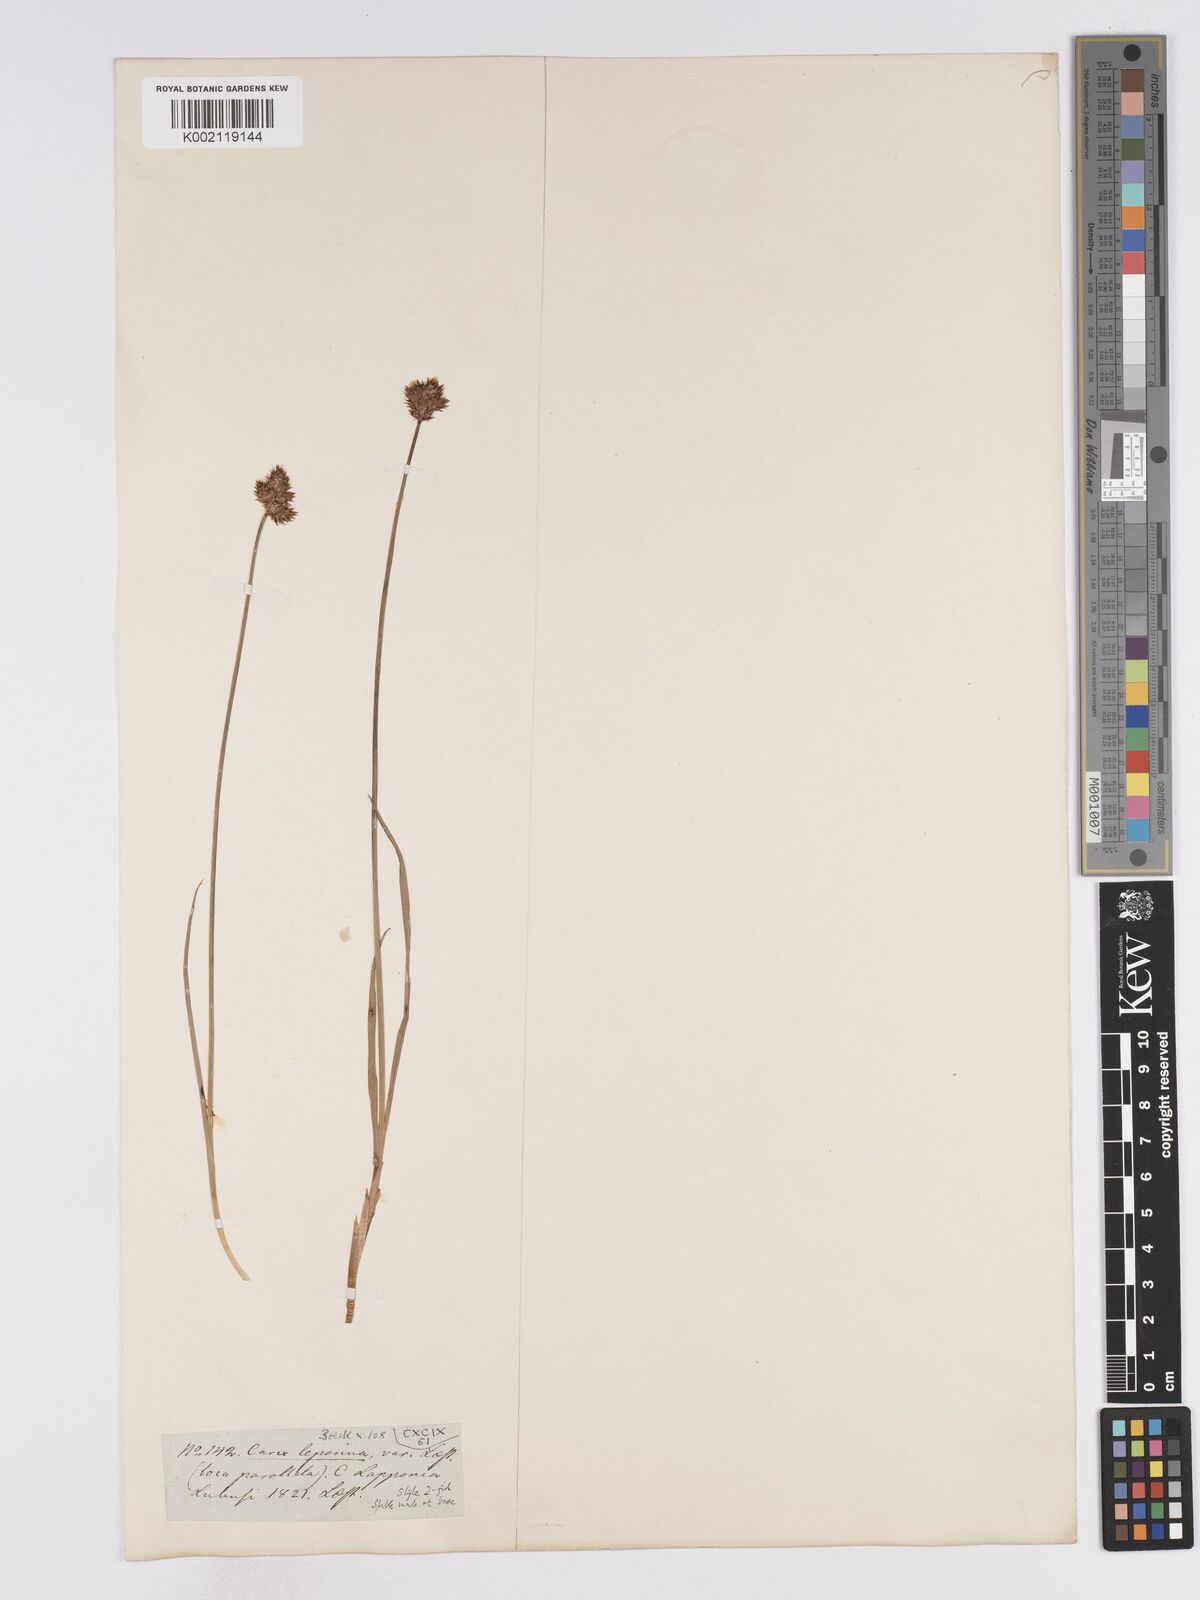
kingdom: Plantae
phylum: Tracheophyta
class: Liliopsida
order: Poales
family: Cyperaceae
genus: Carex
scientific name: Carex leporina
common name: Oval sedge
